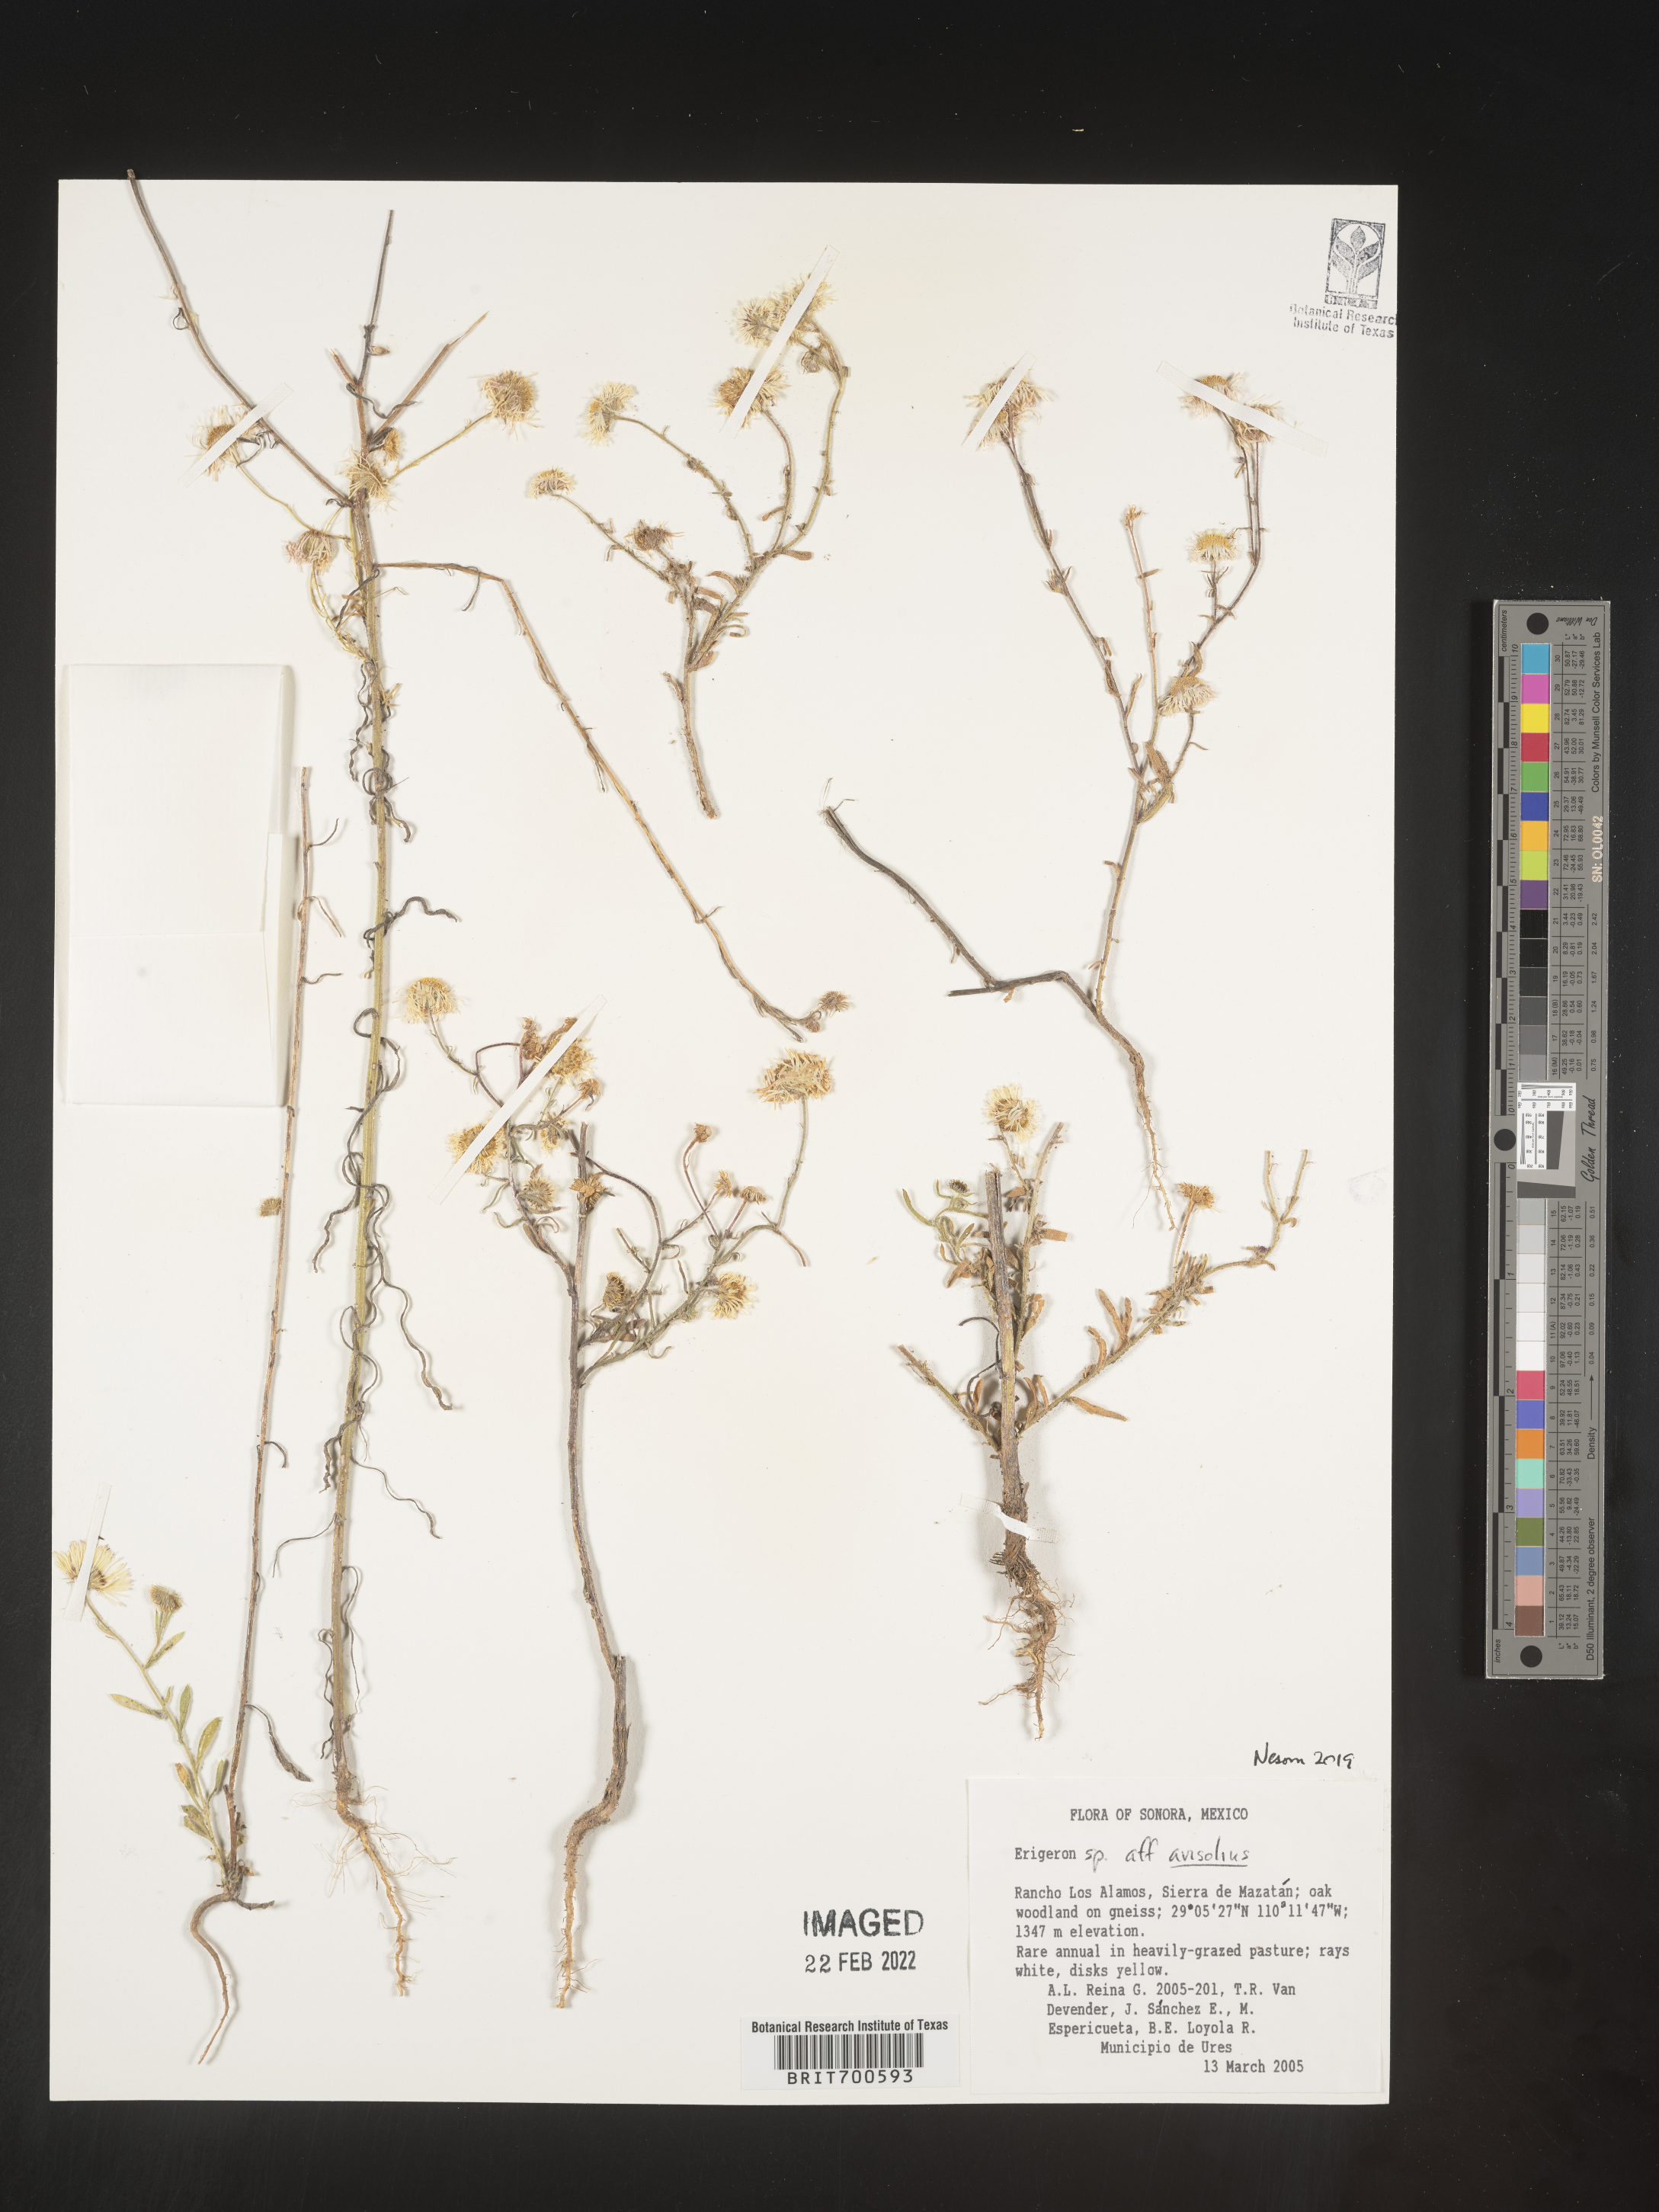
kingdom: Plantae
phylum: Tracheophyta
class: Magnoliopsida
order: Asterales
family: Asteraceae
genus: Erigeron
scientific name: Erigeron arisolius
